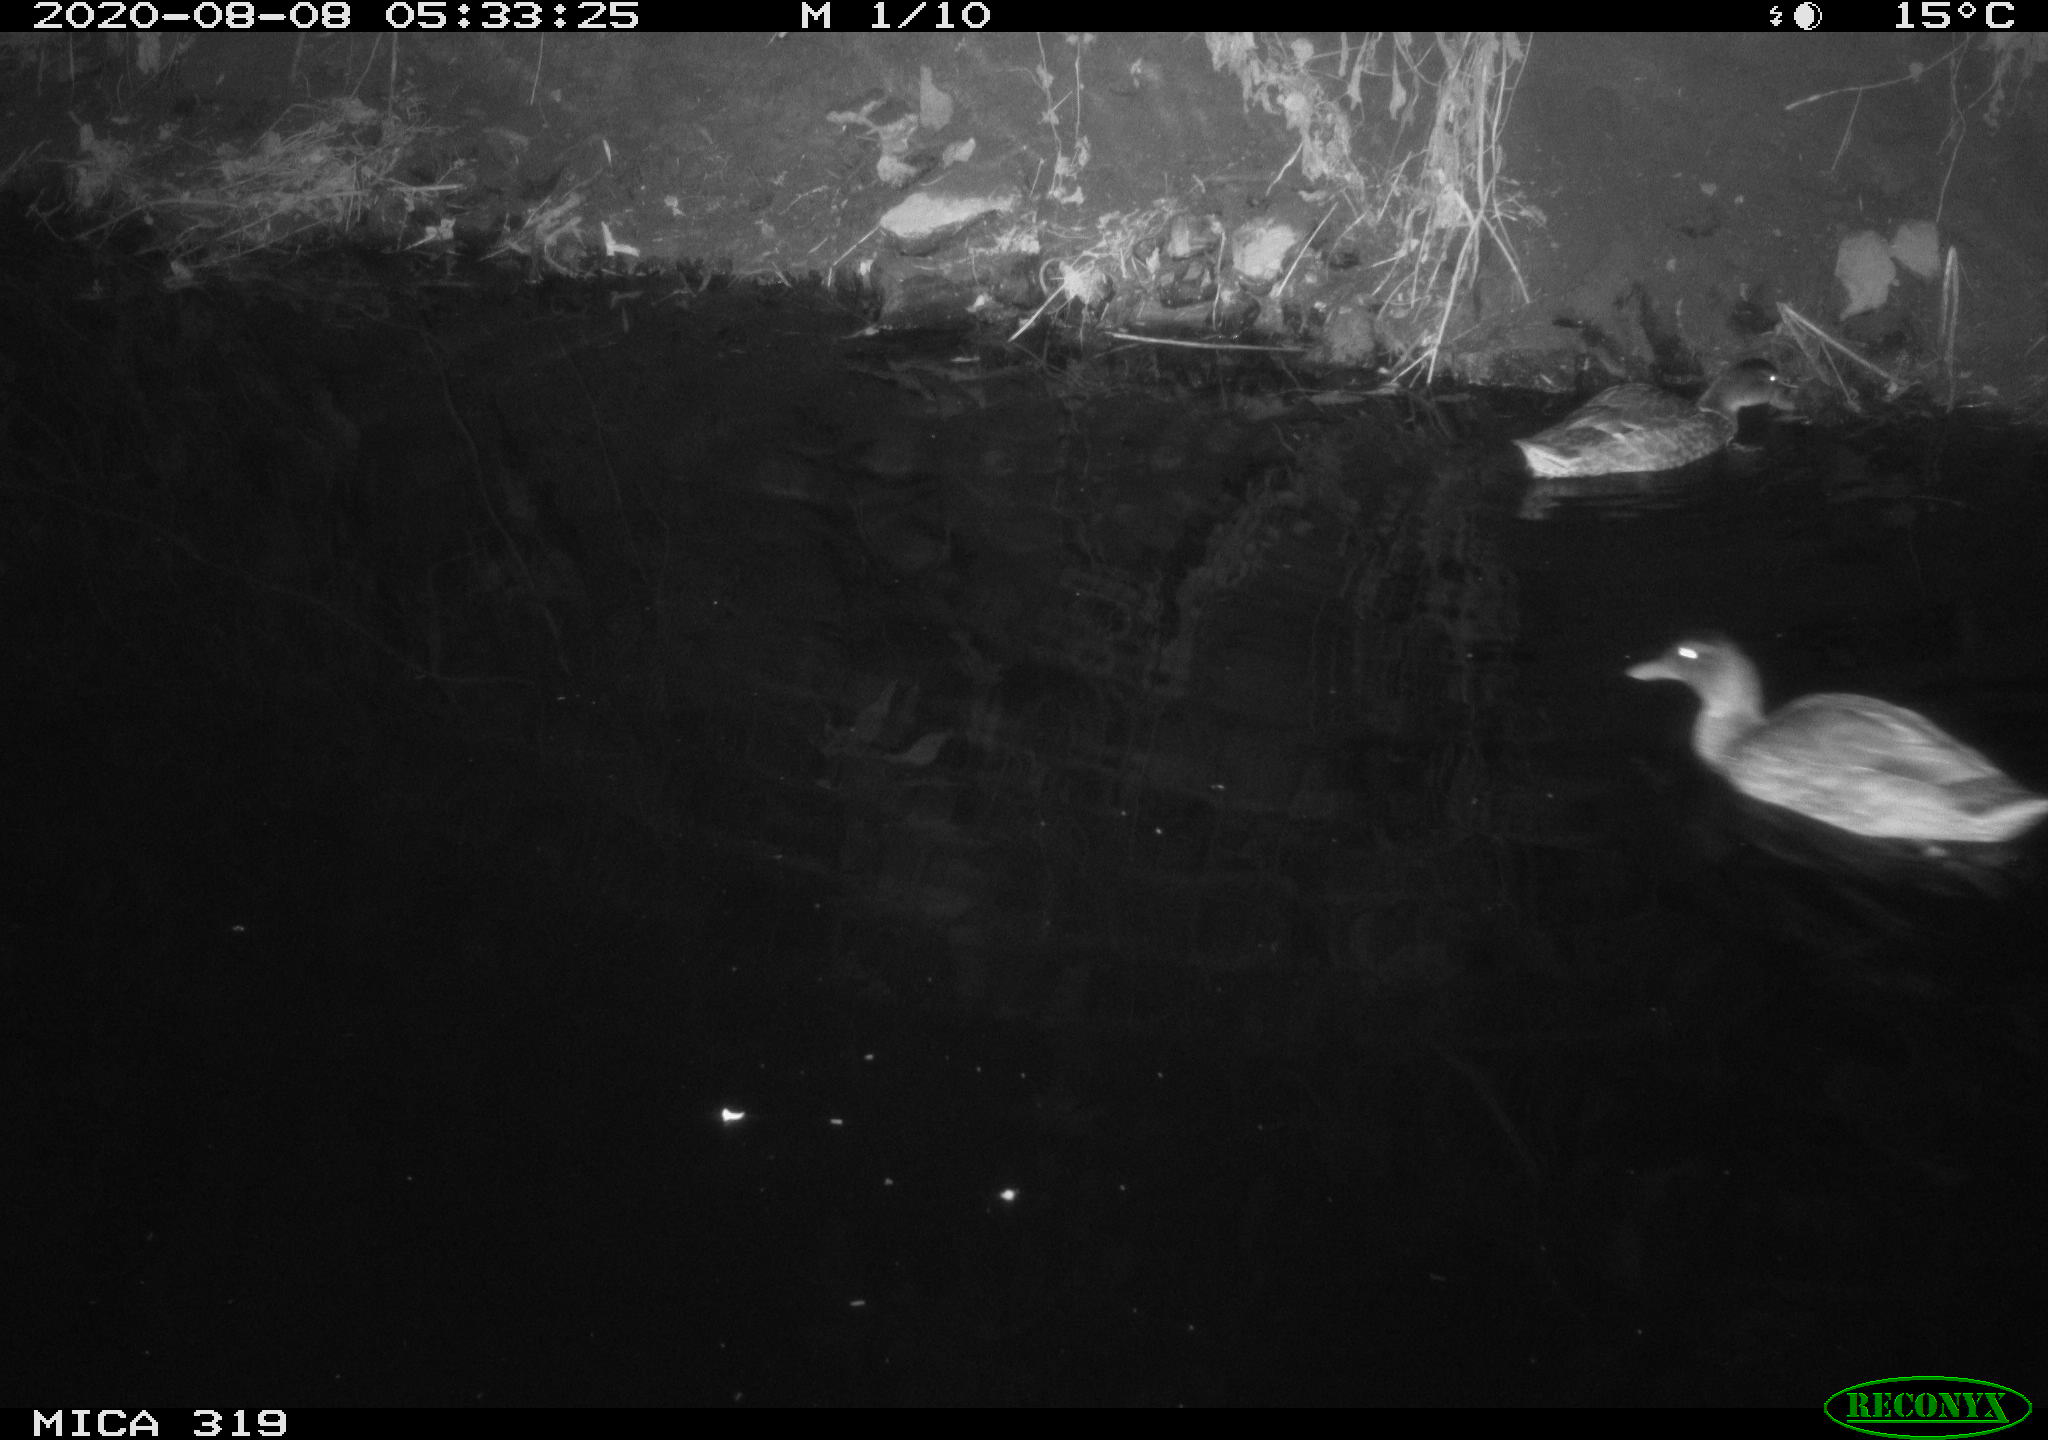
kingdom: Animalia
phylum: Chordata
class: Aves
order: Anseriformes
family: Anatidae
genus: Anas
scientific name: Anas platyrhynchos
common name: Mallard
